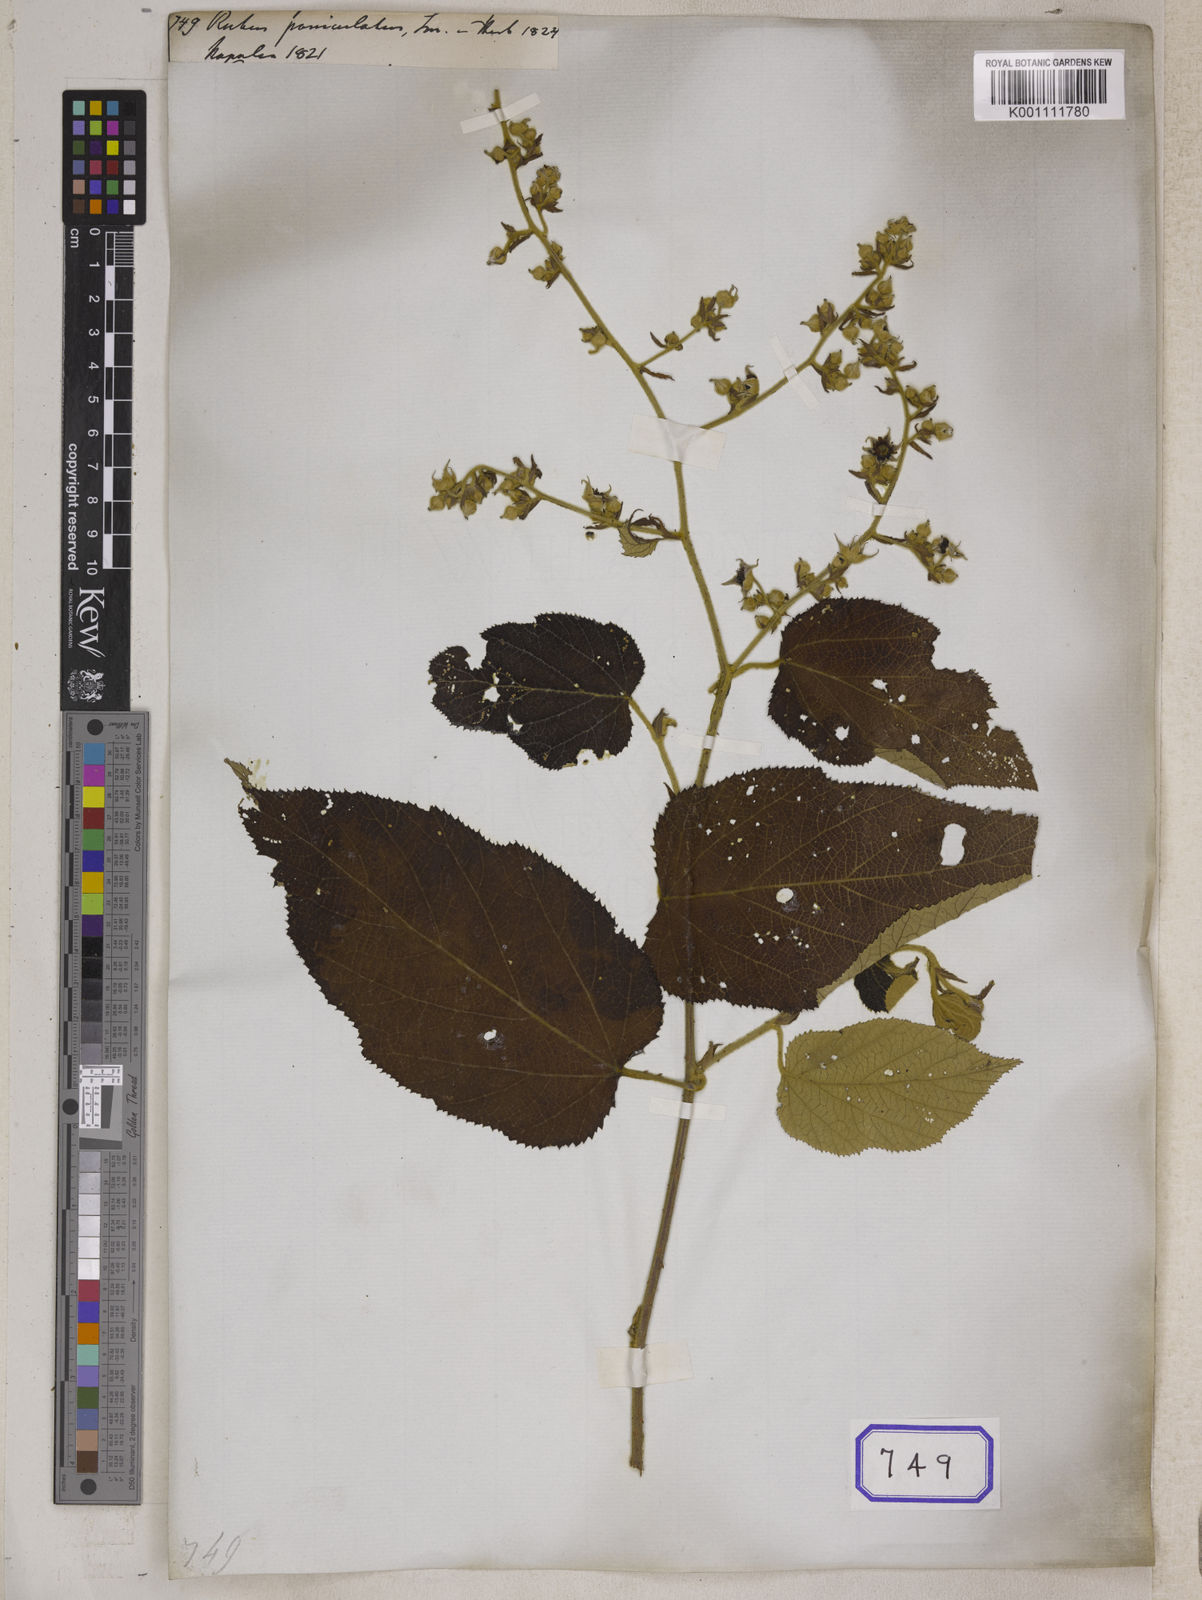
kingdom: Plantae
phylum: Tracheophyta
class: Magnoliopsida
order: Rosales
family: Rosaceae
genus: Rubus
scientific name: Rubus paniculatus
